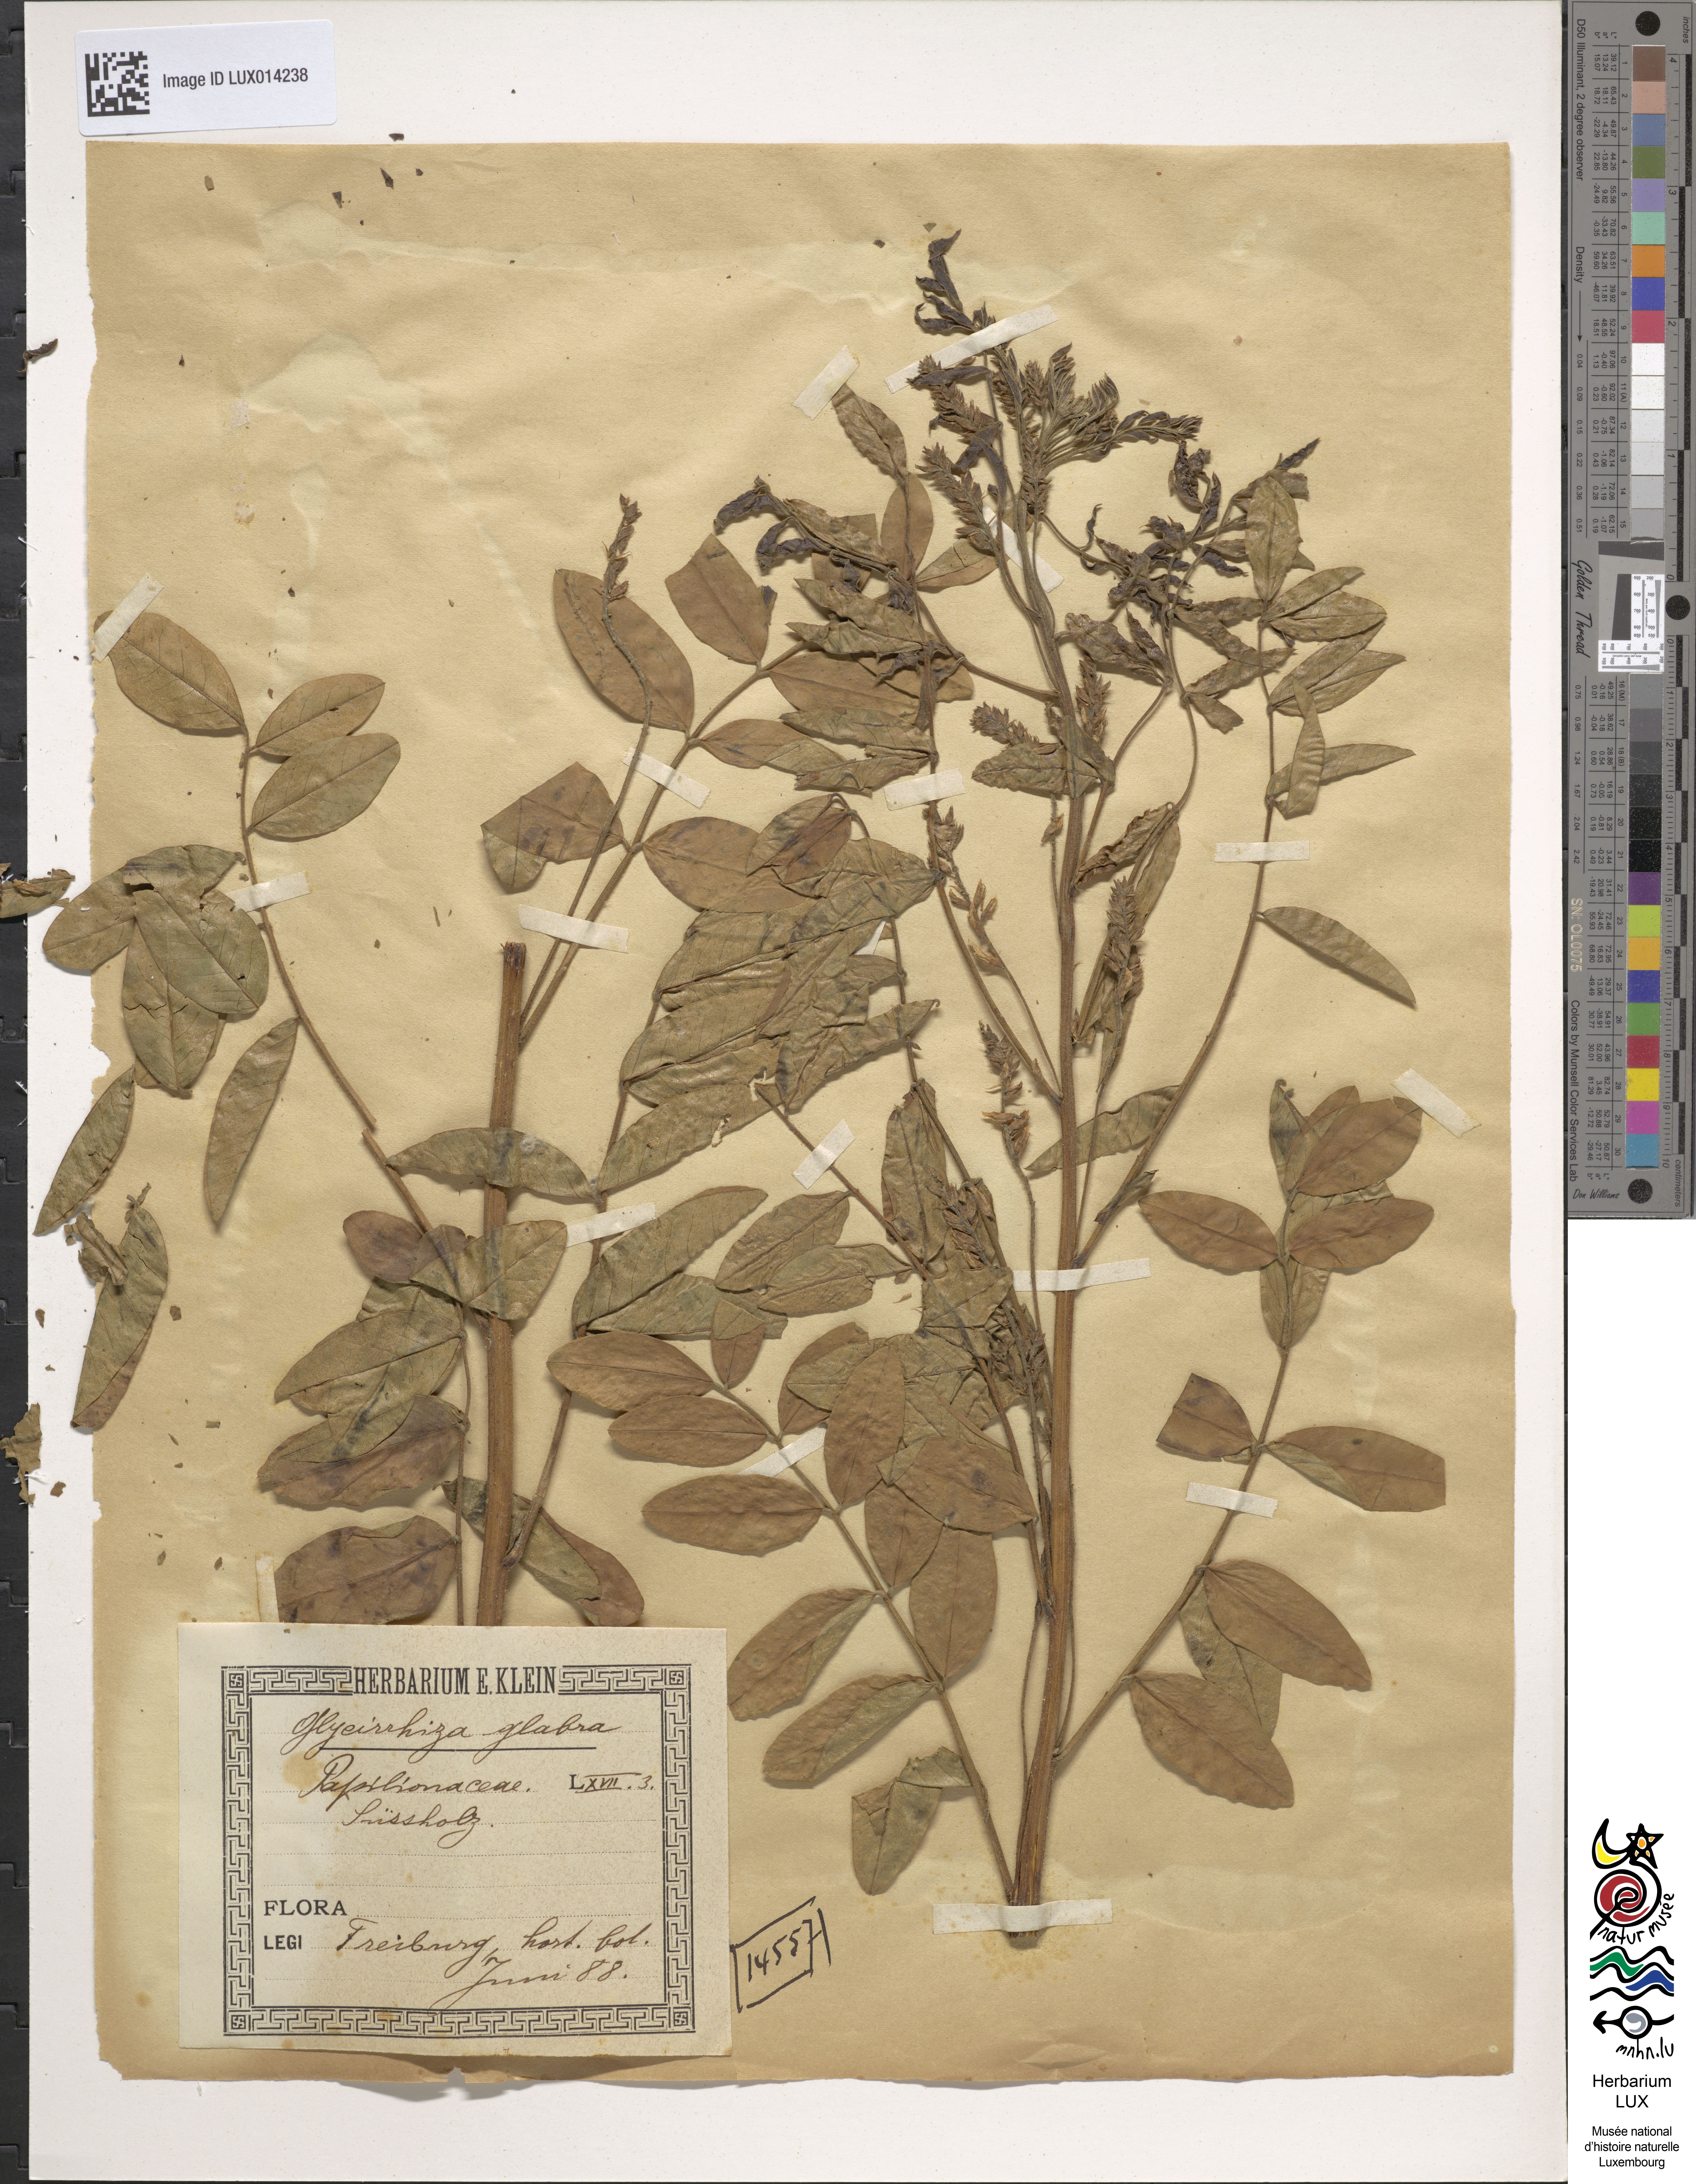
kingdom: Plantae
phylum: Tracheophyta
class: Magnoliopsida
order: Fabales
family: Fabaceae
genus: Glycyrrhiza
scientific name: Glycyrrhiza glabra
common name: Liquorice
